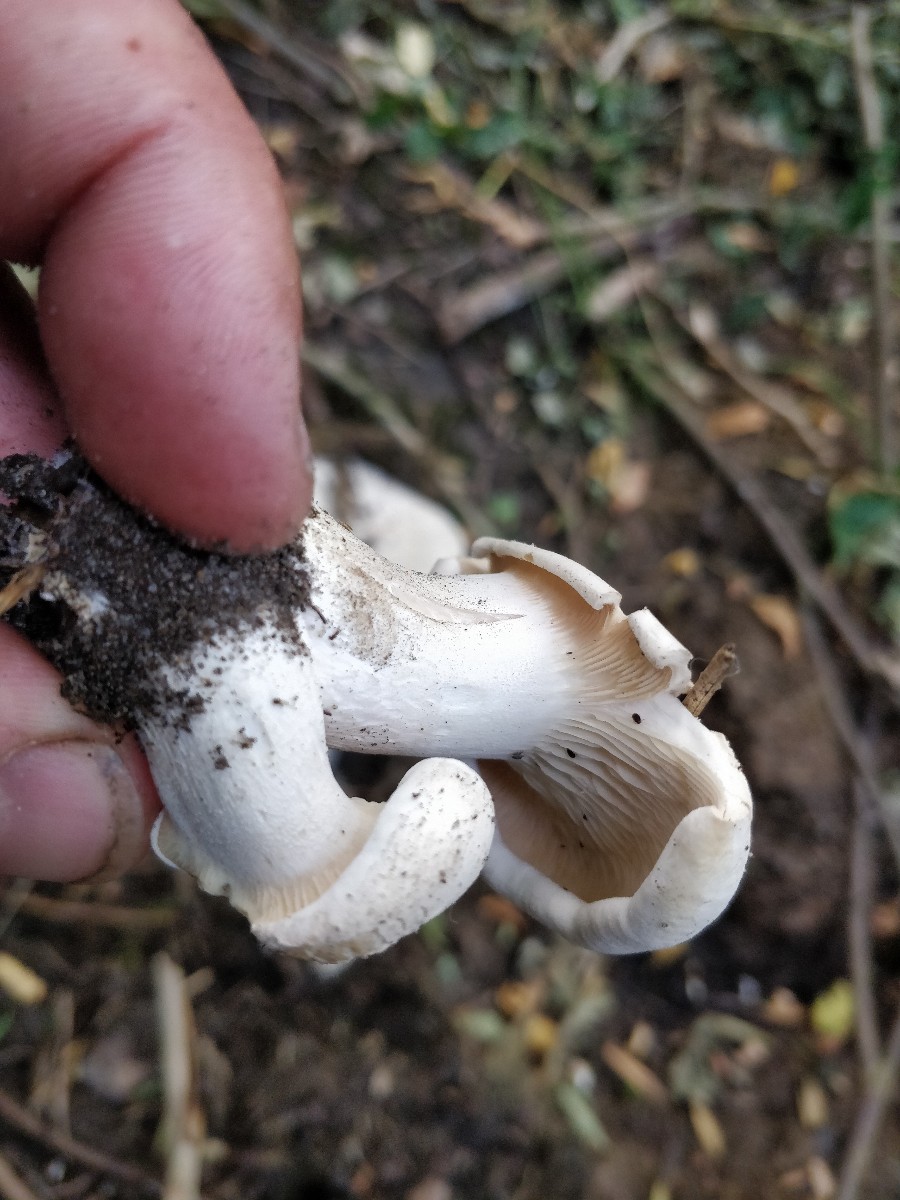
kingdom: Fungi
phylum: Basidiomycota
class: Agaricomycetes
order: Agaricales
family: Tricholomataceae
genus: Aspropaxillus
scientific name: Aspropaxillus giganteus
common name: kæmpe-tragtridderhat
